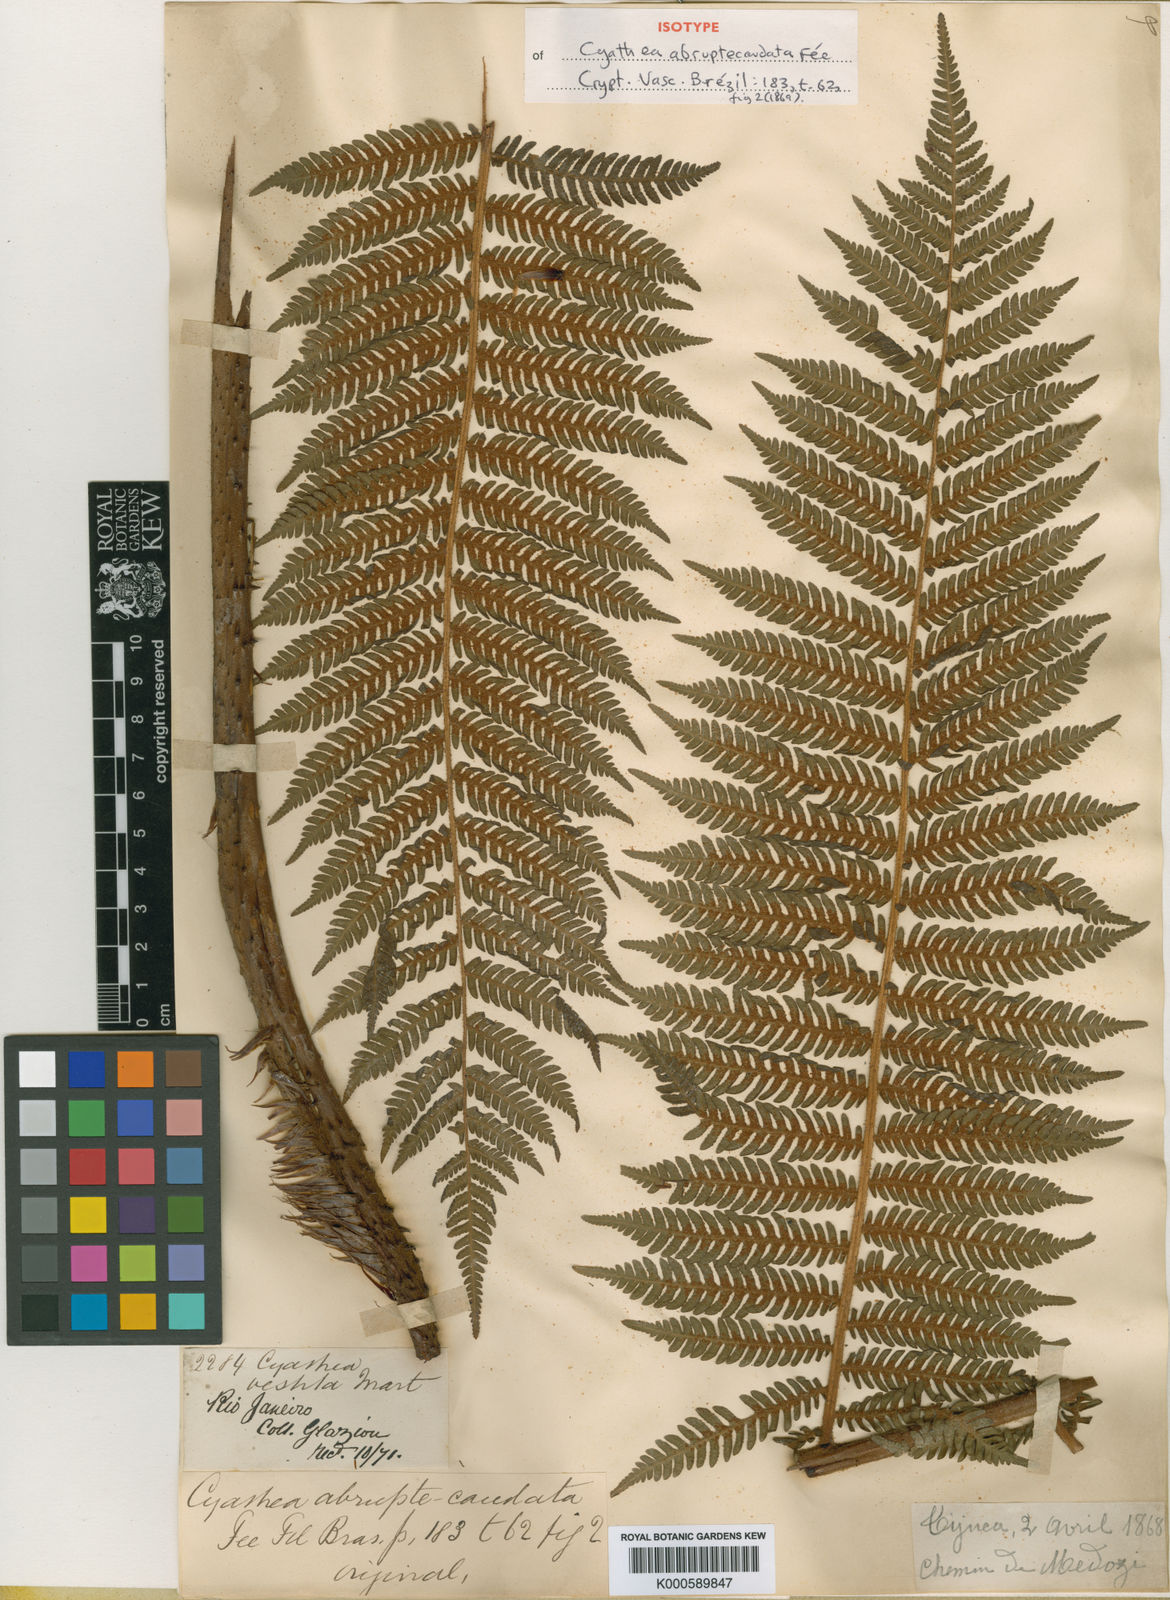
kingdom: Plantae
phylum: Tracheophyta
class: Polypodiopsida
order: Cyatheales
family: Cyatheaceae
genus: Cyathea
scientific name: Cyathea delgadii
